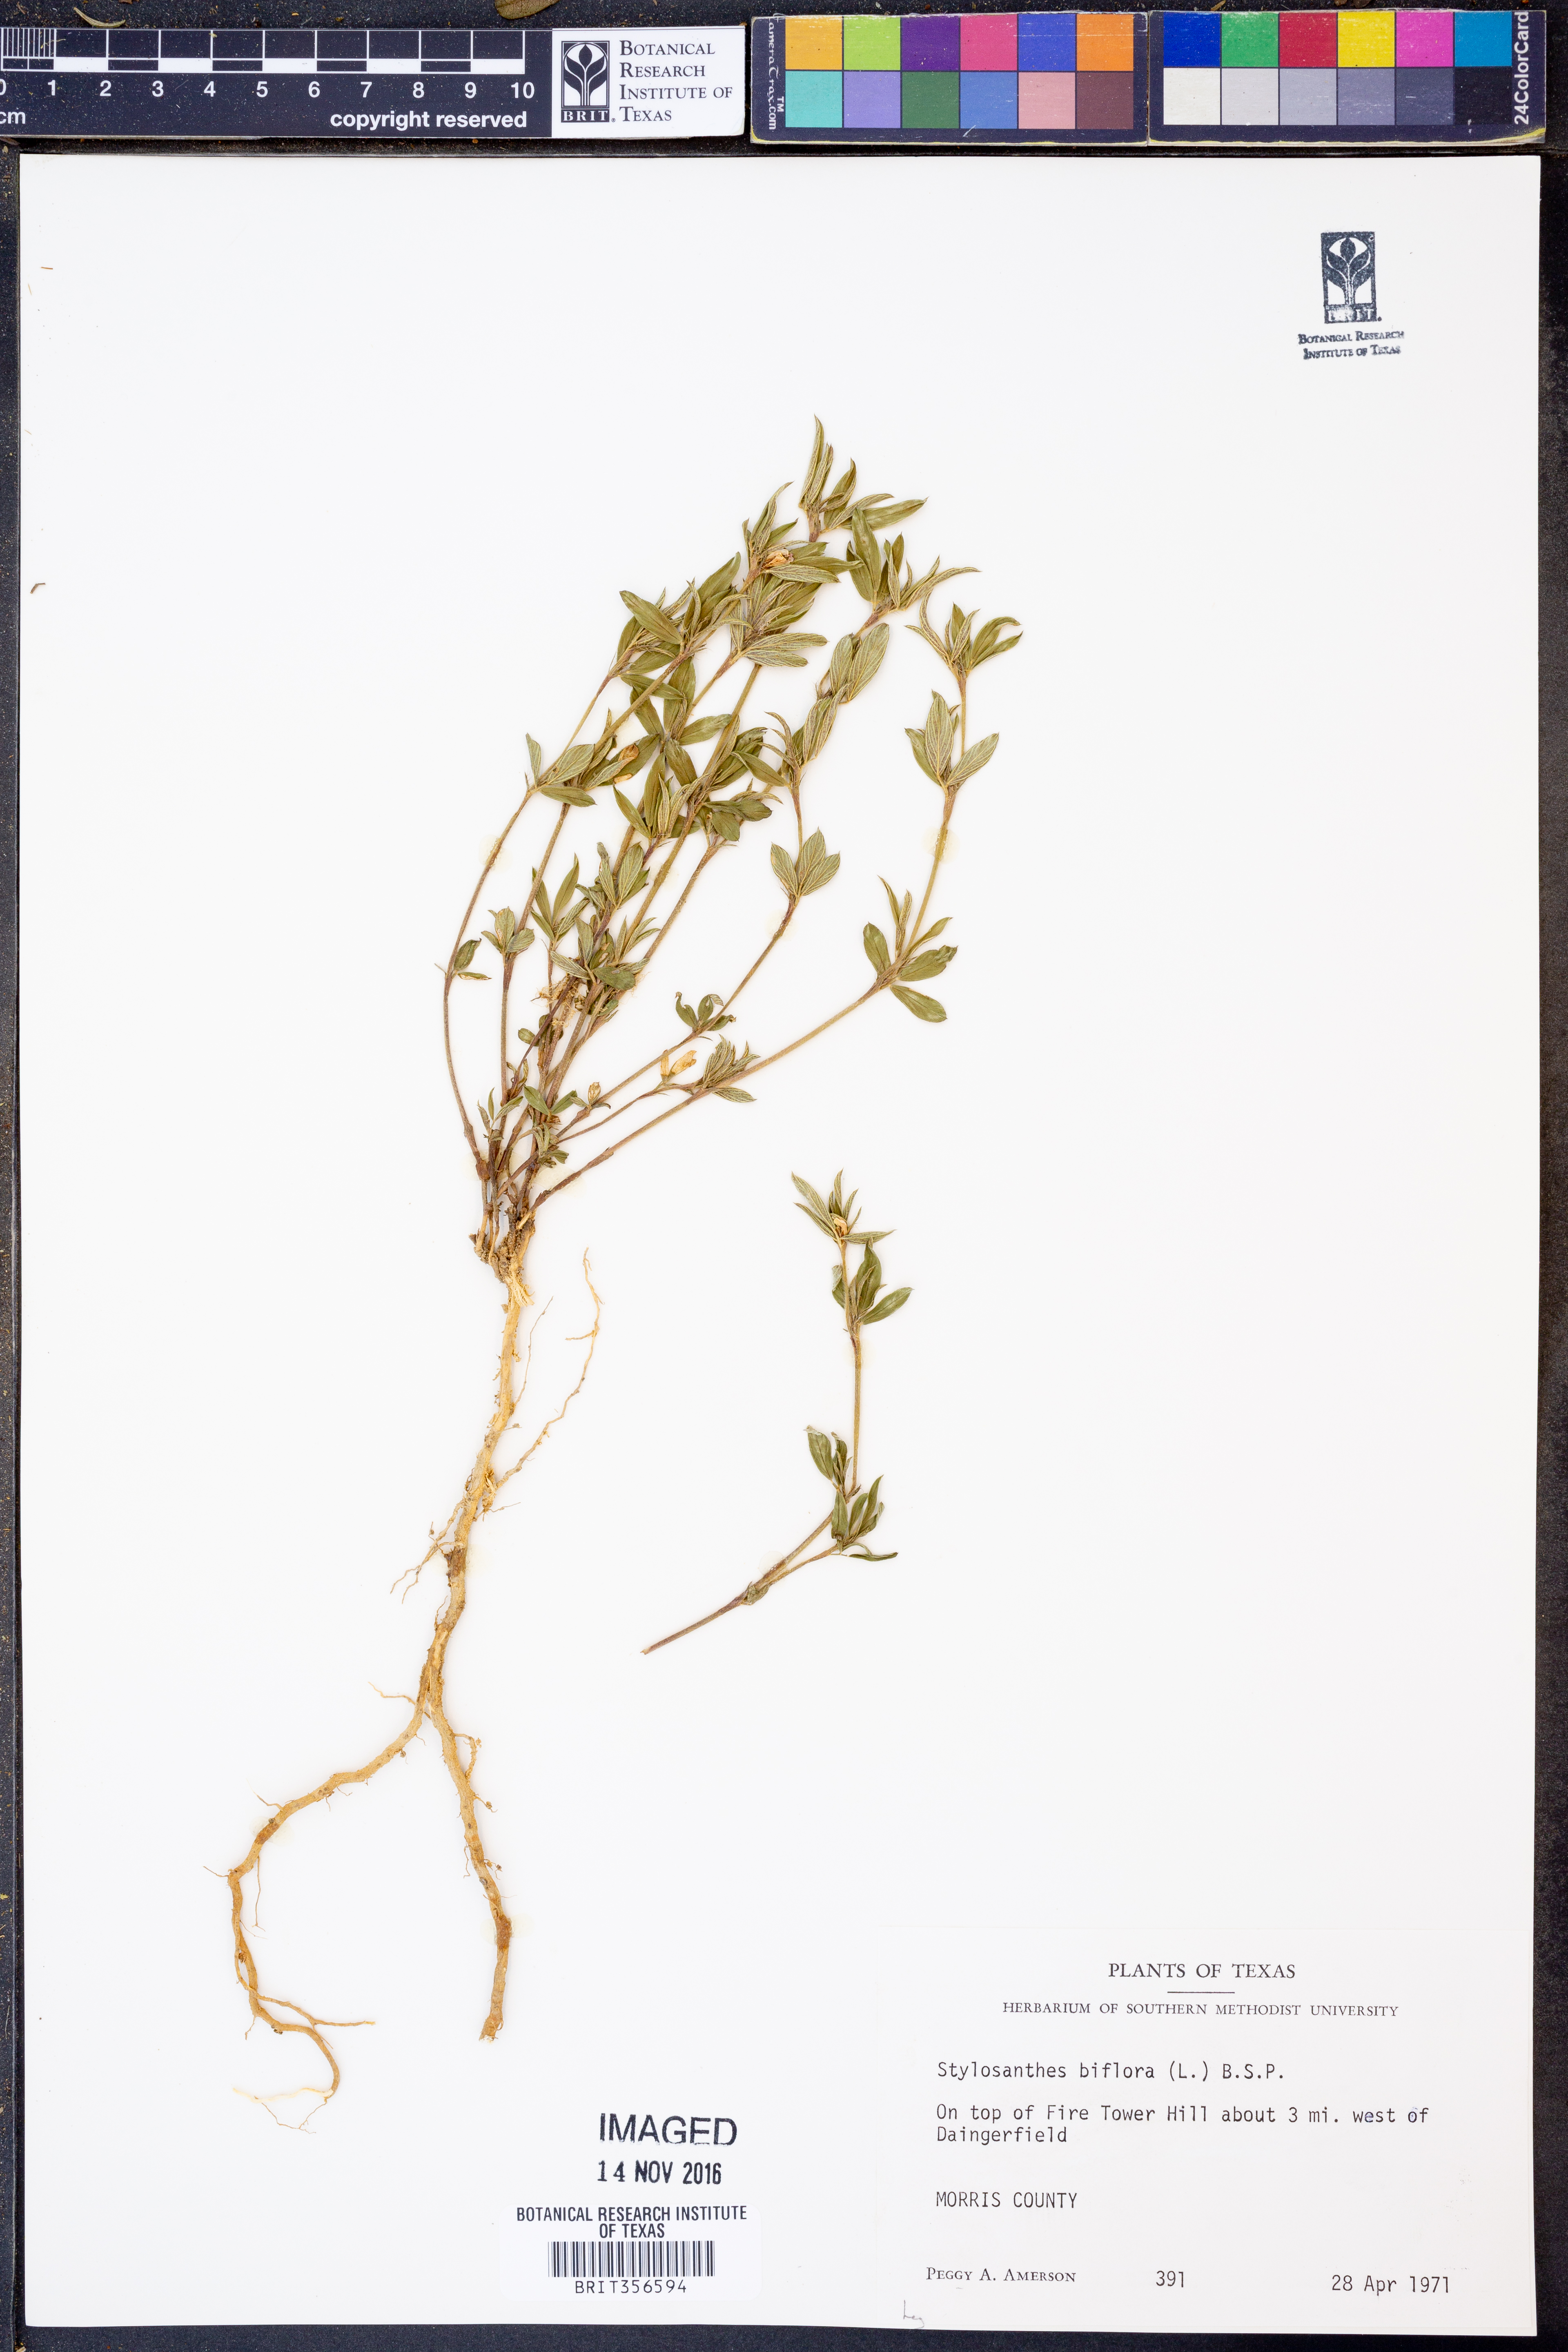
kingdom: Plantae
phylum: Tracheophyta
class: Magnoliopsida
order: Fabales
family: Fabaceae
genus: Stylosanthes
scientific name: Stylosanthes biflora
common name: Two-flower pencil-flower
